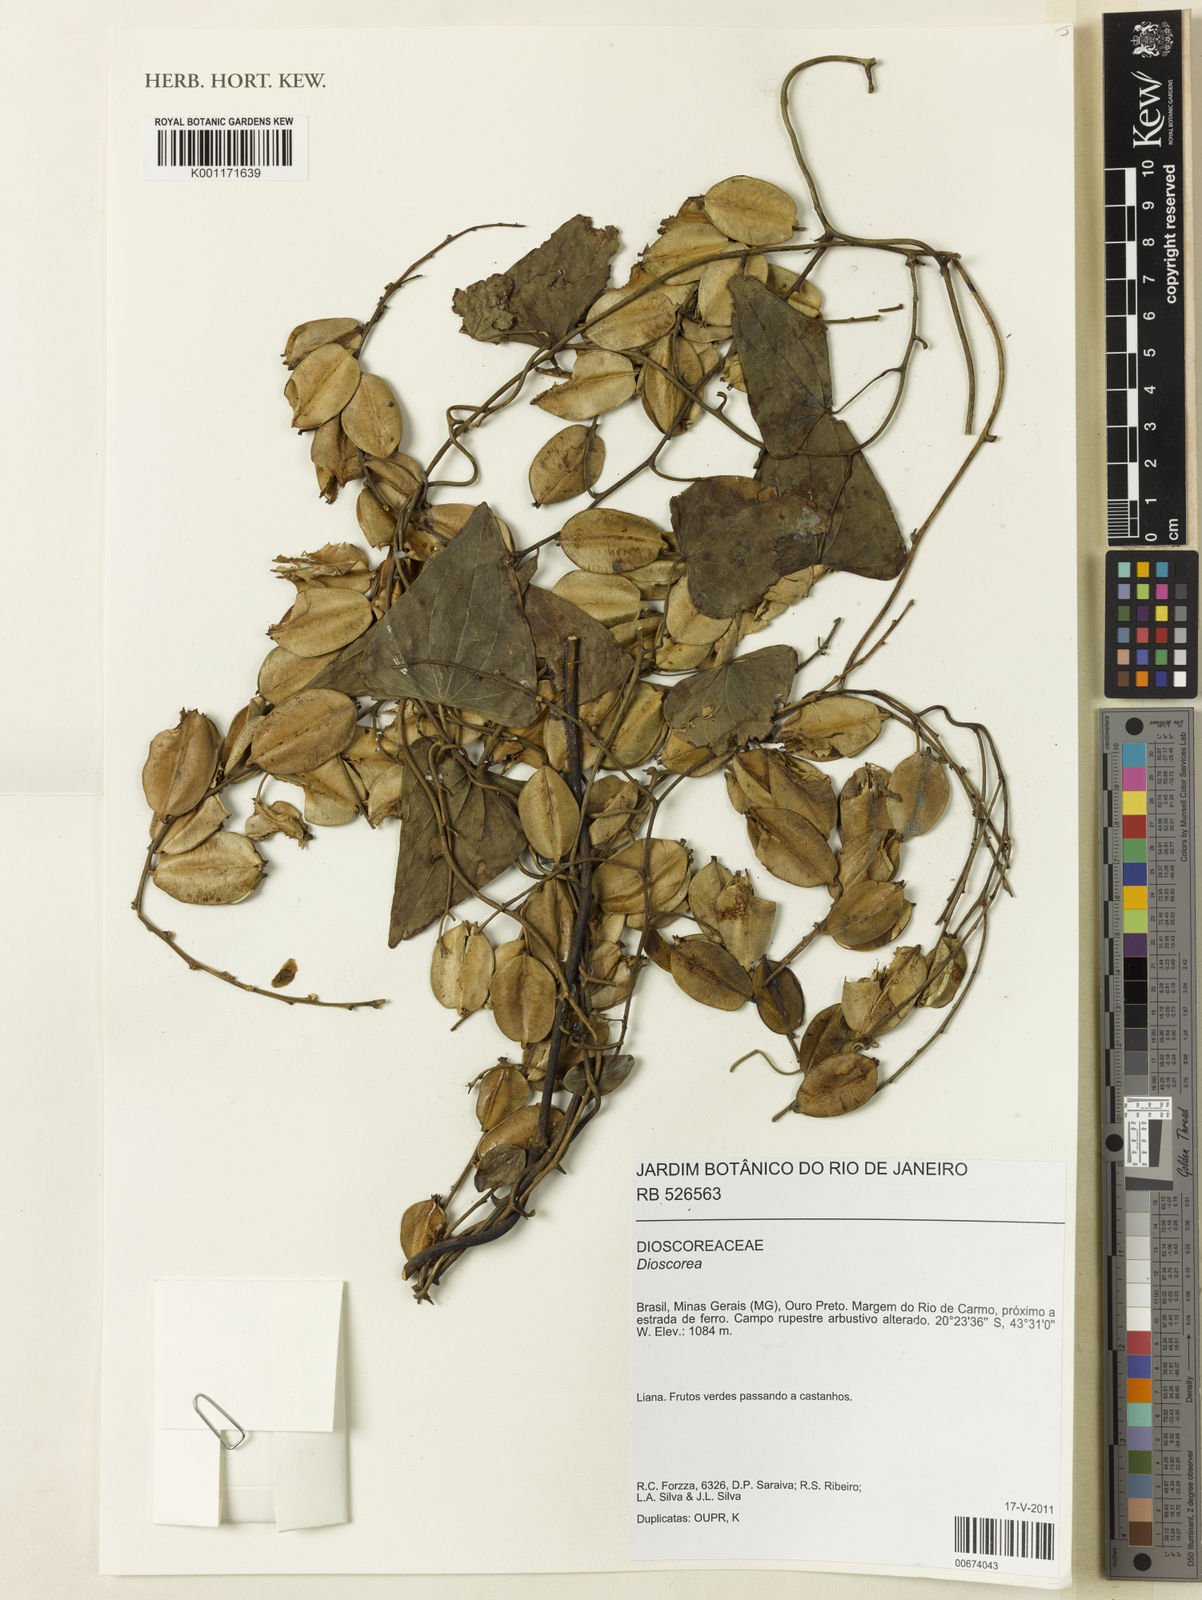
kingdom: Plantae
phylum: Tracheophyta
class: Liliopsida
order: Dioscoreales
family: Dioscoreaceae
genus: Dioscorea
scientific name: Dioscorea multiflora
